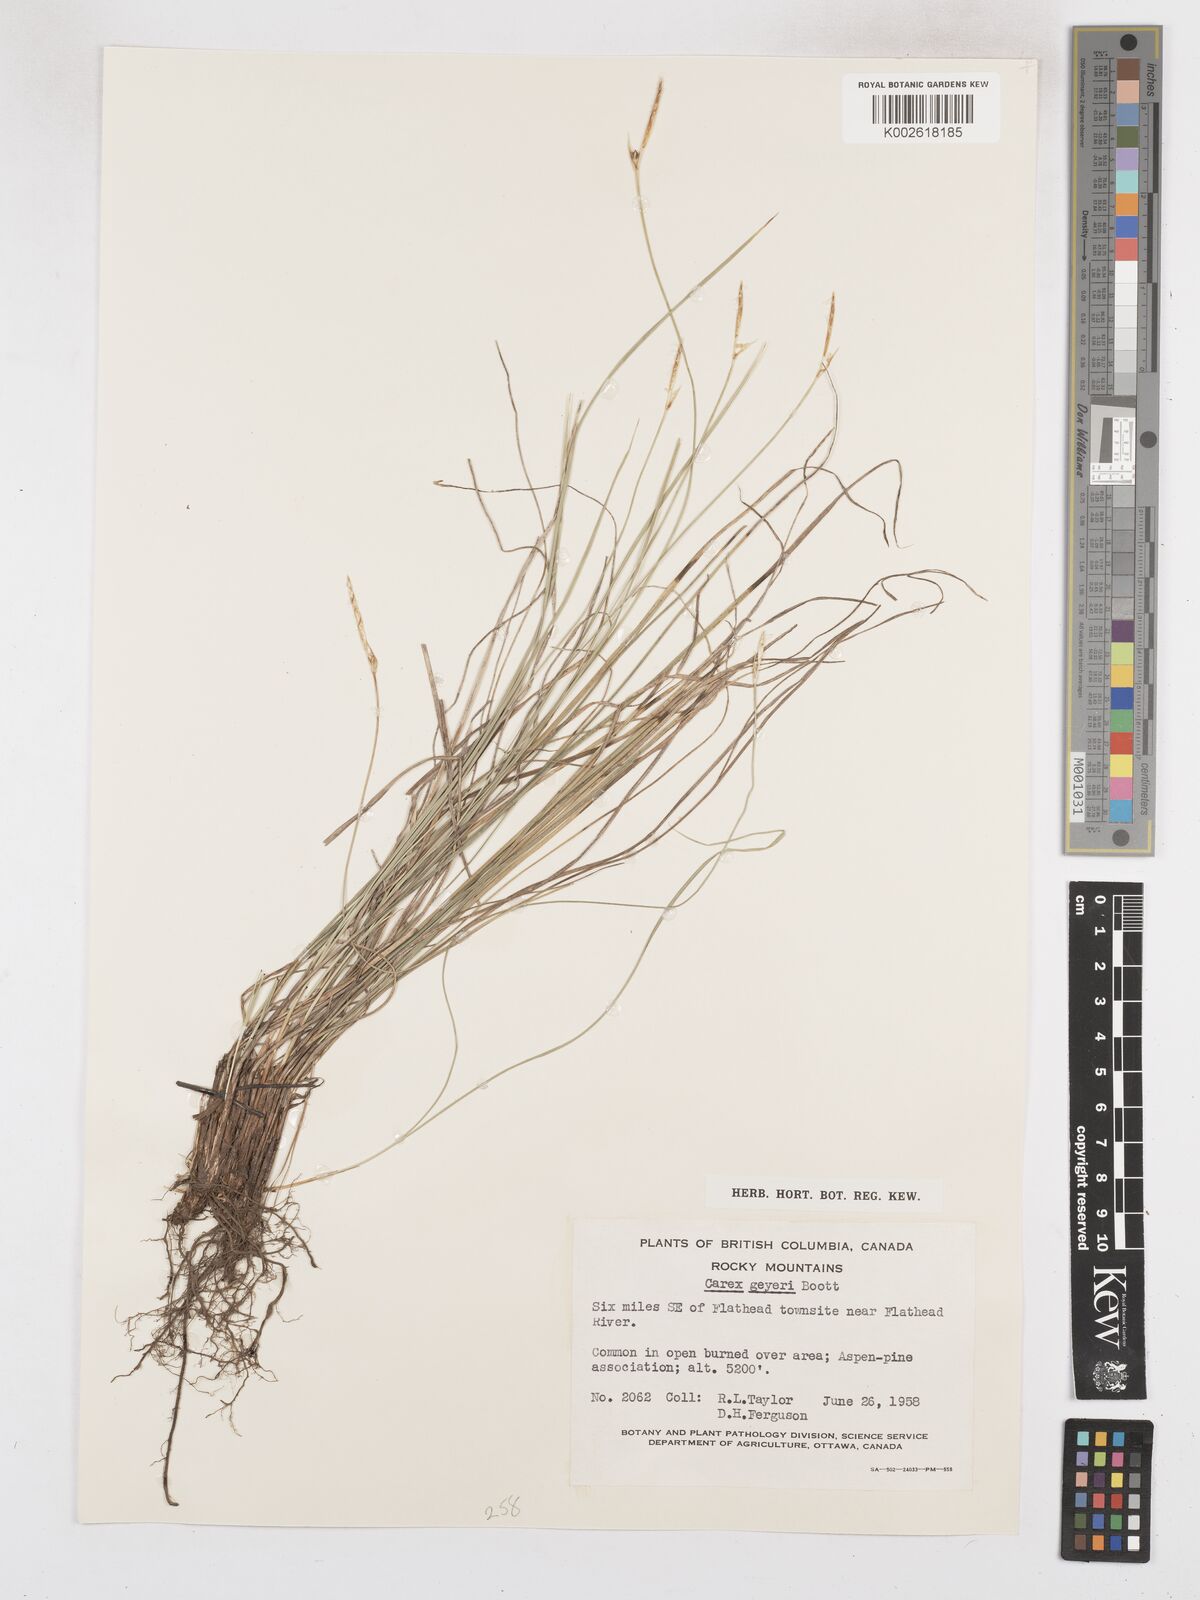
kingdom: Plantae
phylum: Tracheophyta
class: Liliopsida
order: Poales
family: Cyperaceae
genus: Carex
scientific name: Carex geyeri
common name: Elk sedge
